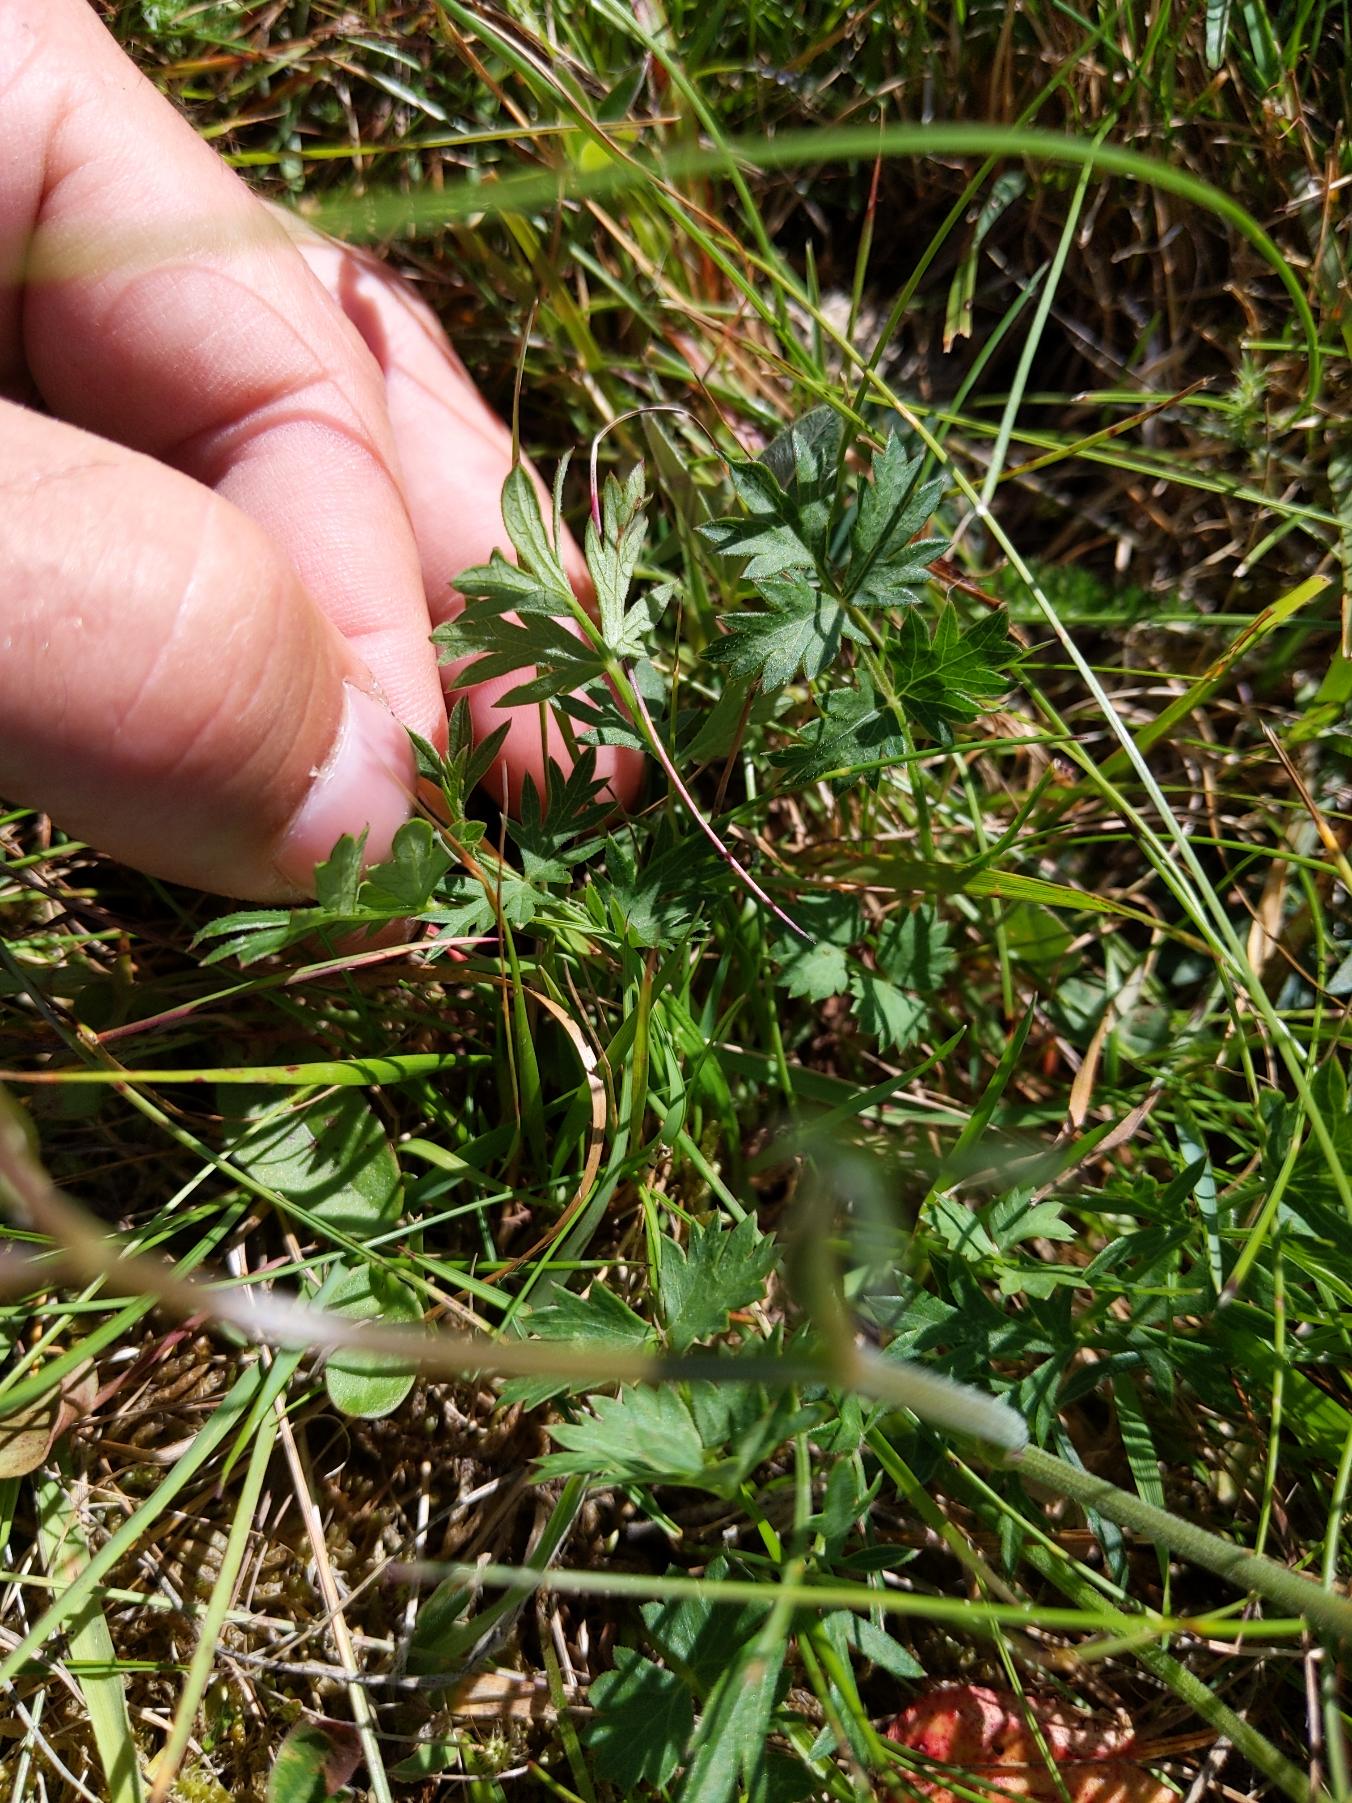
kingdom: Plantae
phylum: Tracheophyta
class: Magnoliopsida
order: Apiales
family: Apiaceae
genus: Pimpinella
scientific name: Pimpinella saxifraga
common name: Almindelig pimpinelle
